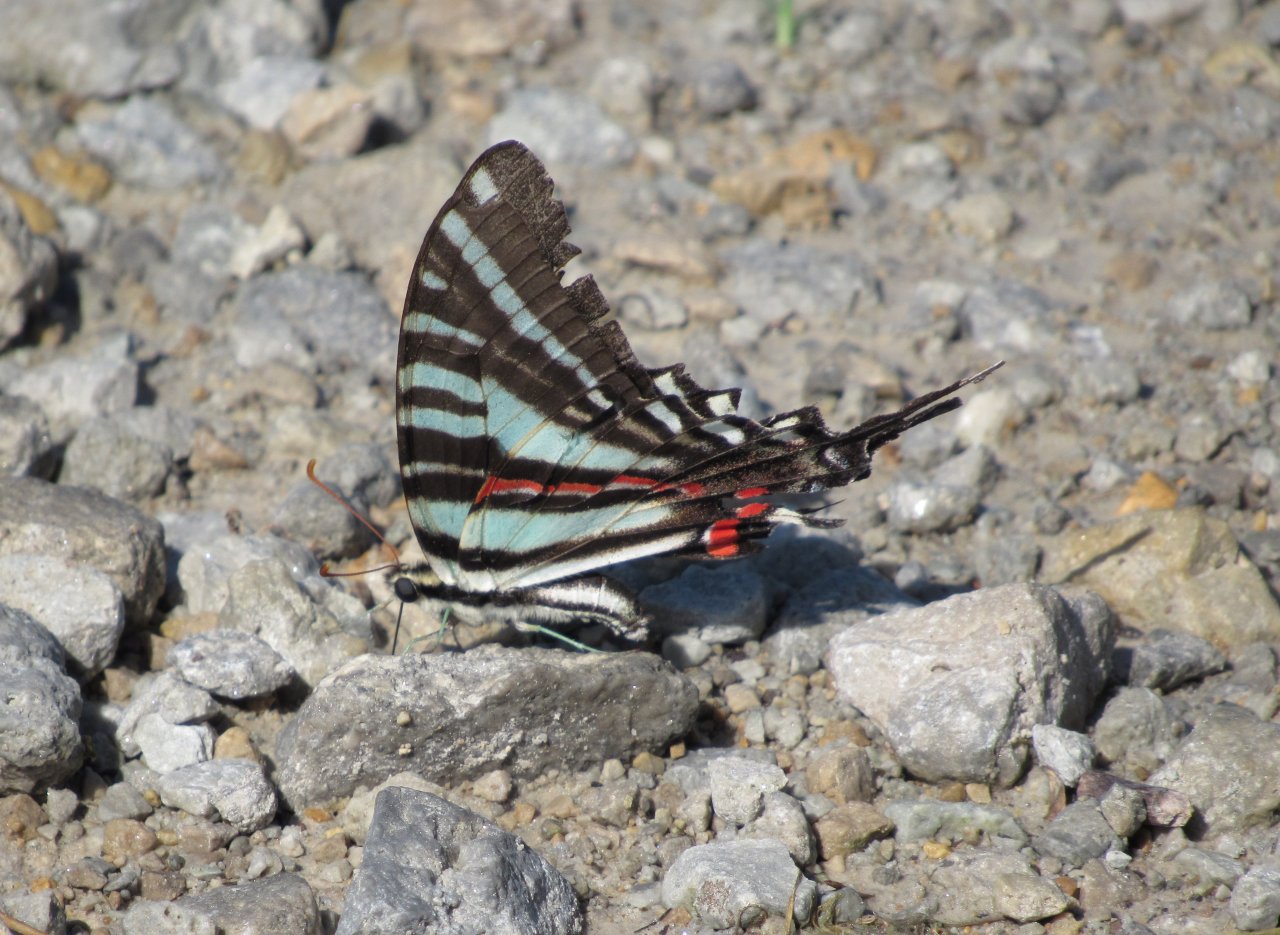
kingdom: Animalia
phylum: Arthropoda
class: Insecta
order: Lepidoptera
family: Papilionidae
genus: Protographium
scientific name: Protographium marcellus
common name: Zebra Swallowtail
